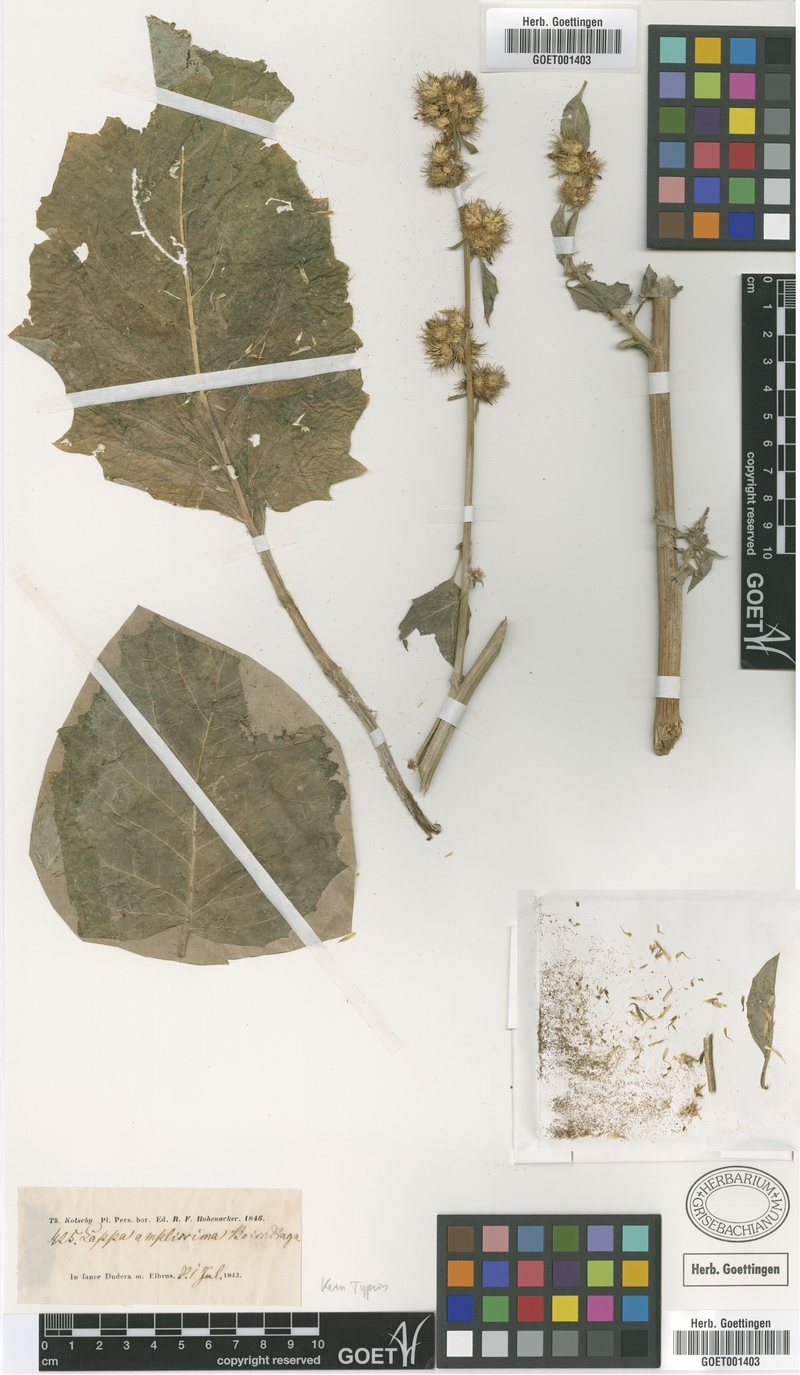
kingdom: Plantae
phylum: Tracheophyta
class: Magnoliopsida
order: Asterales
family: Asteraceae
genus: Arctium
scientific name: Arctium amplissimum
